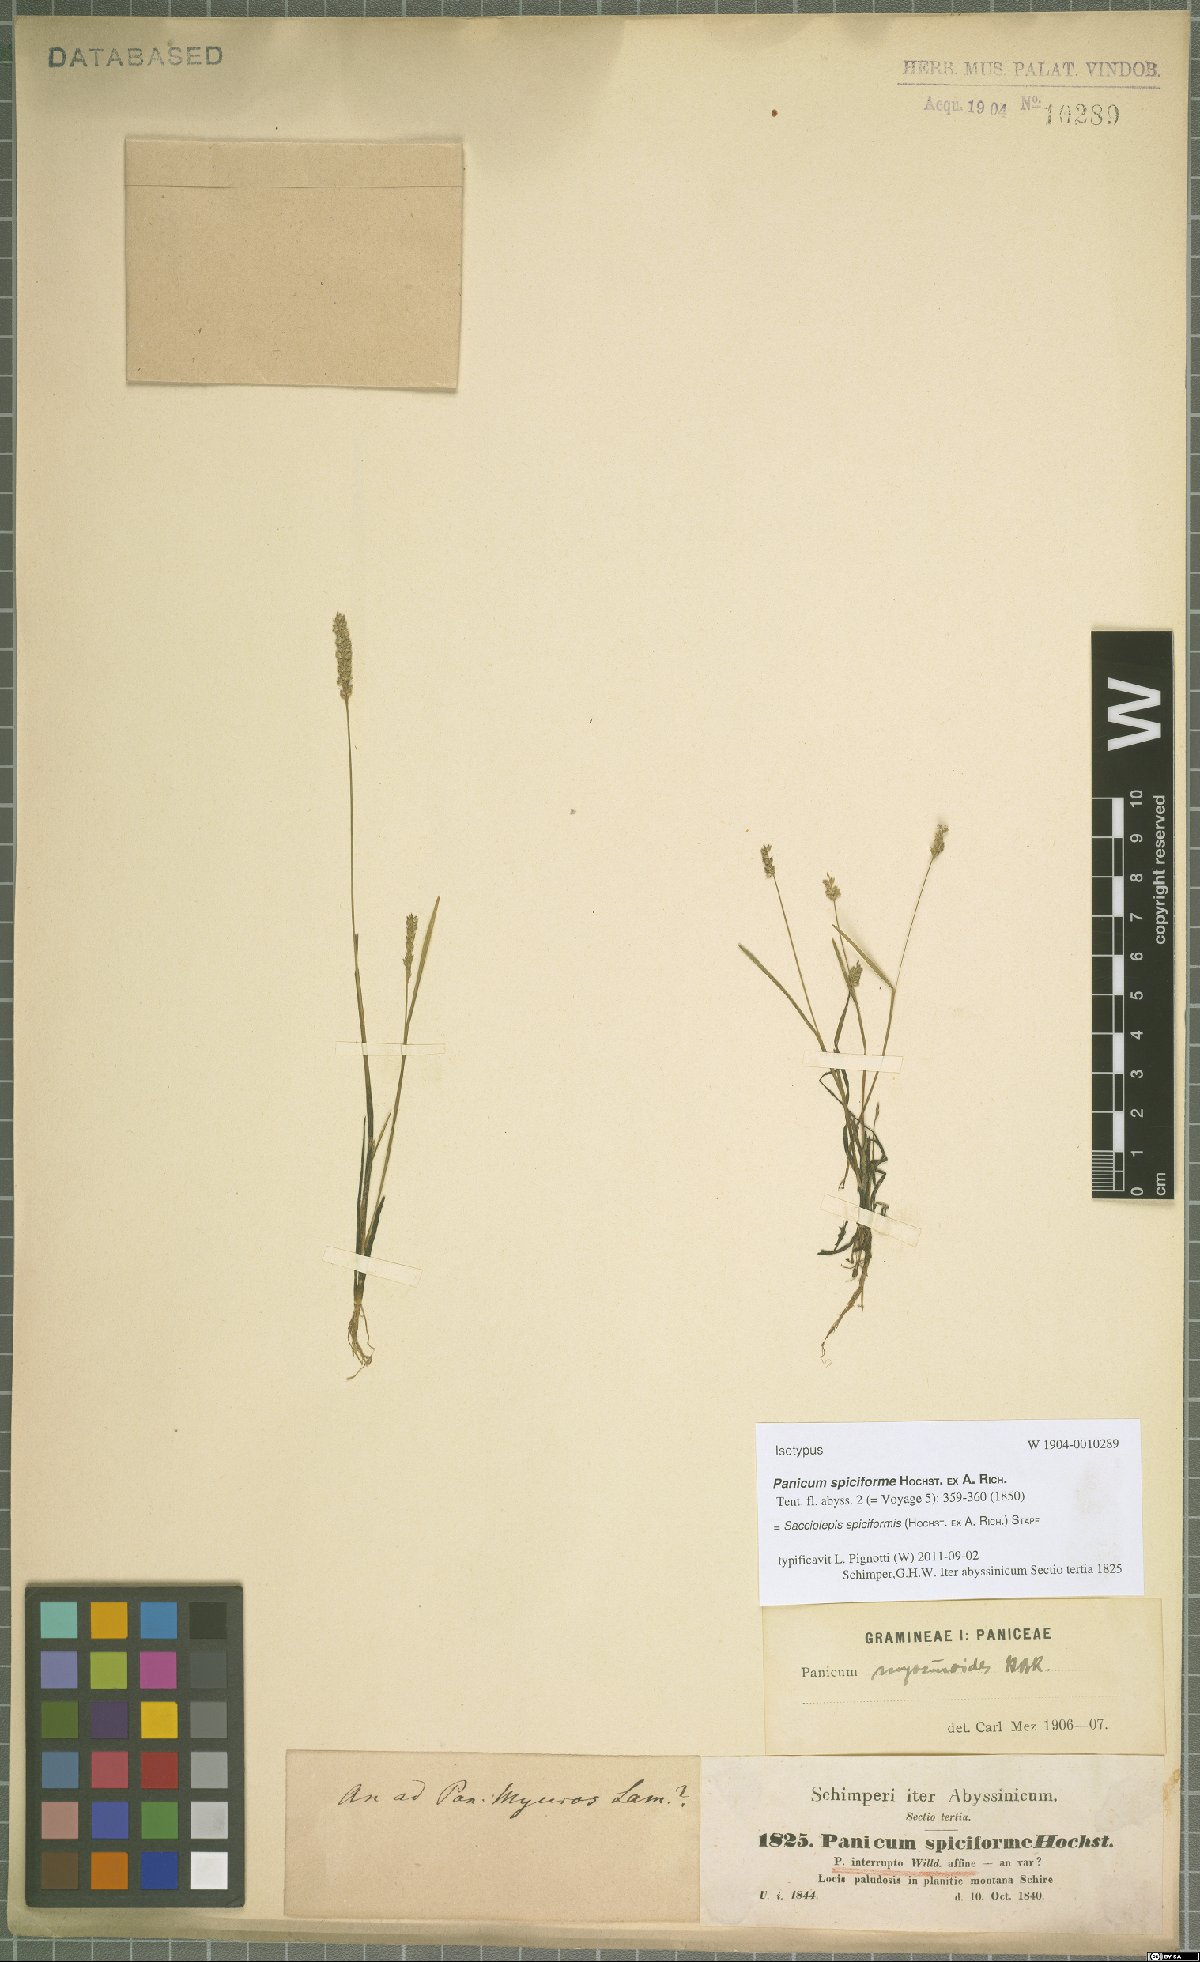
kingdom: Plantae
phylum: Tracheophyta
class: Liliopsida
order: Poales
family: Poaceae
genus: Sacciolepis
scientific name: Sacciolepis myosuroides
